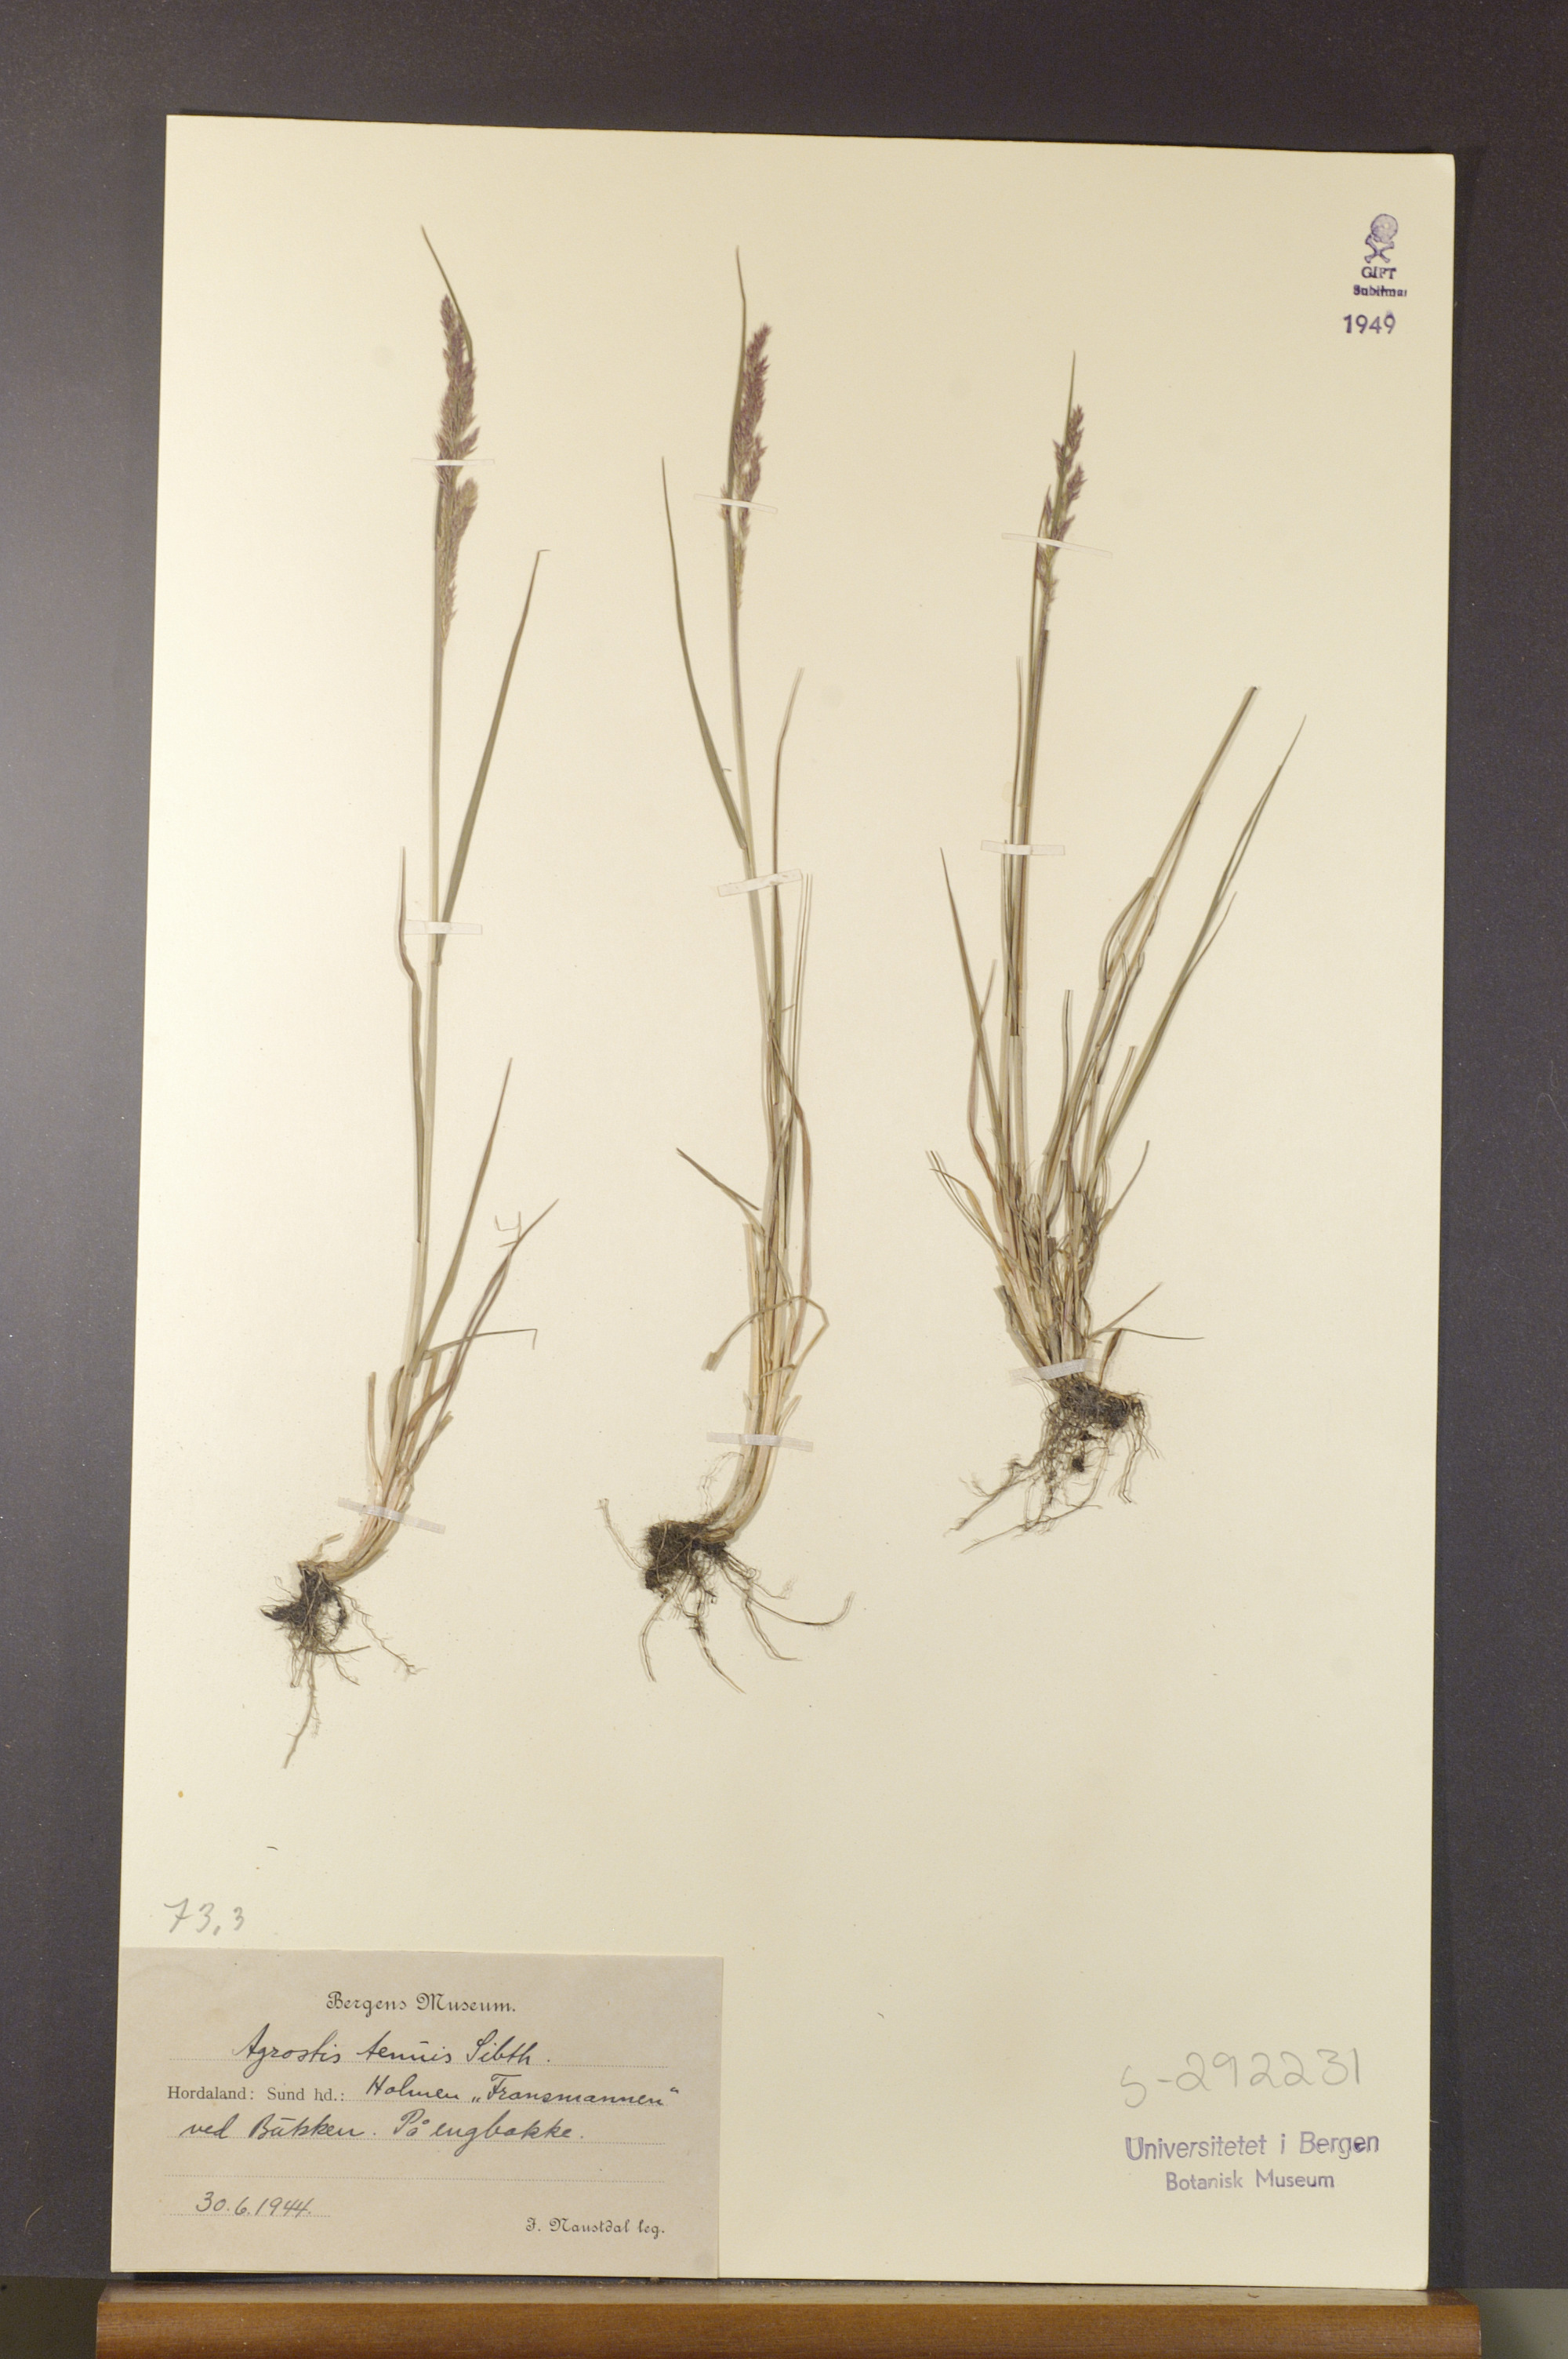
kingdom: Plantae
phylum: Tracheophyta
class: Liliopsida
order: Poales
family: Poaceae
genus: Agrostis
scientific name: Agrostis capillaris
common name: Colonial bentgrass
